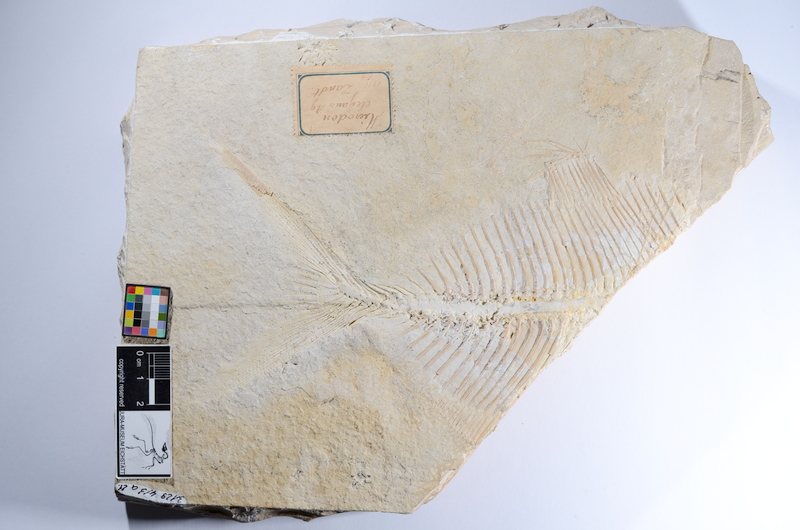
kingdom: Animalia
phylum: Chordata
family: Pycnodontidae
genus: Proscinetes
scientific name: Proscinetes bernardi
